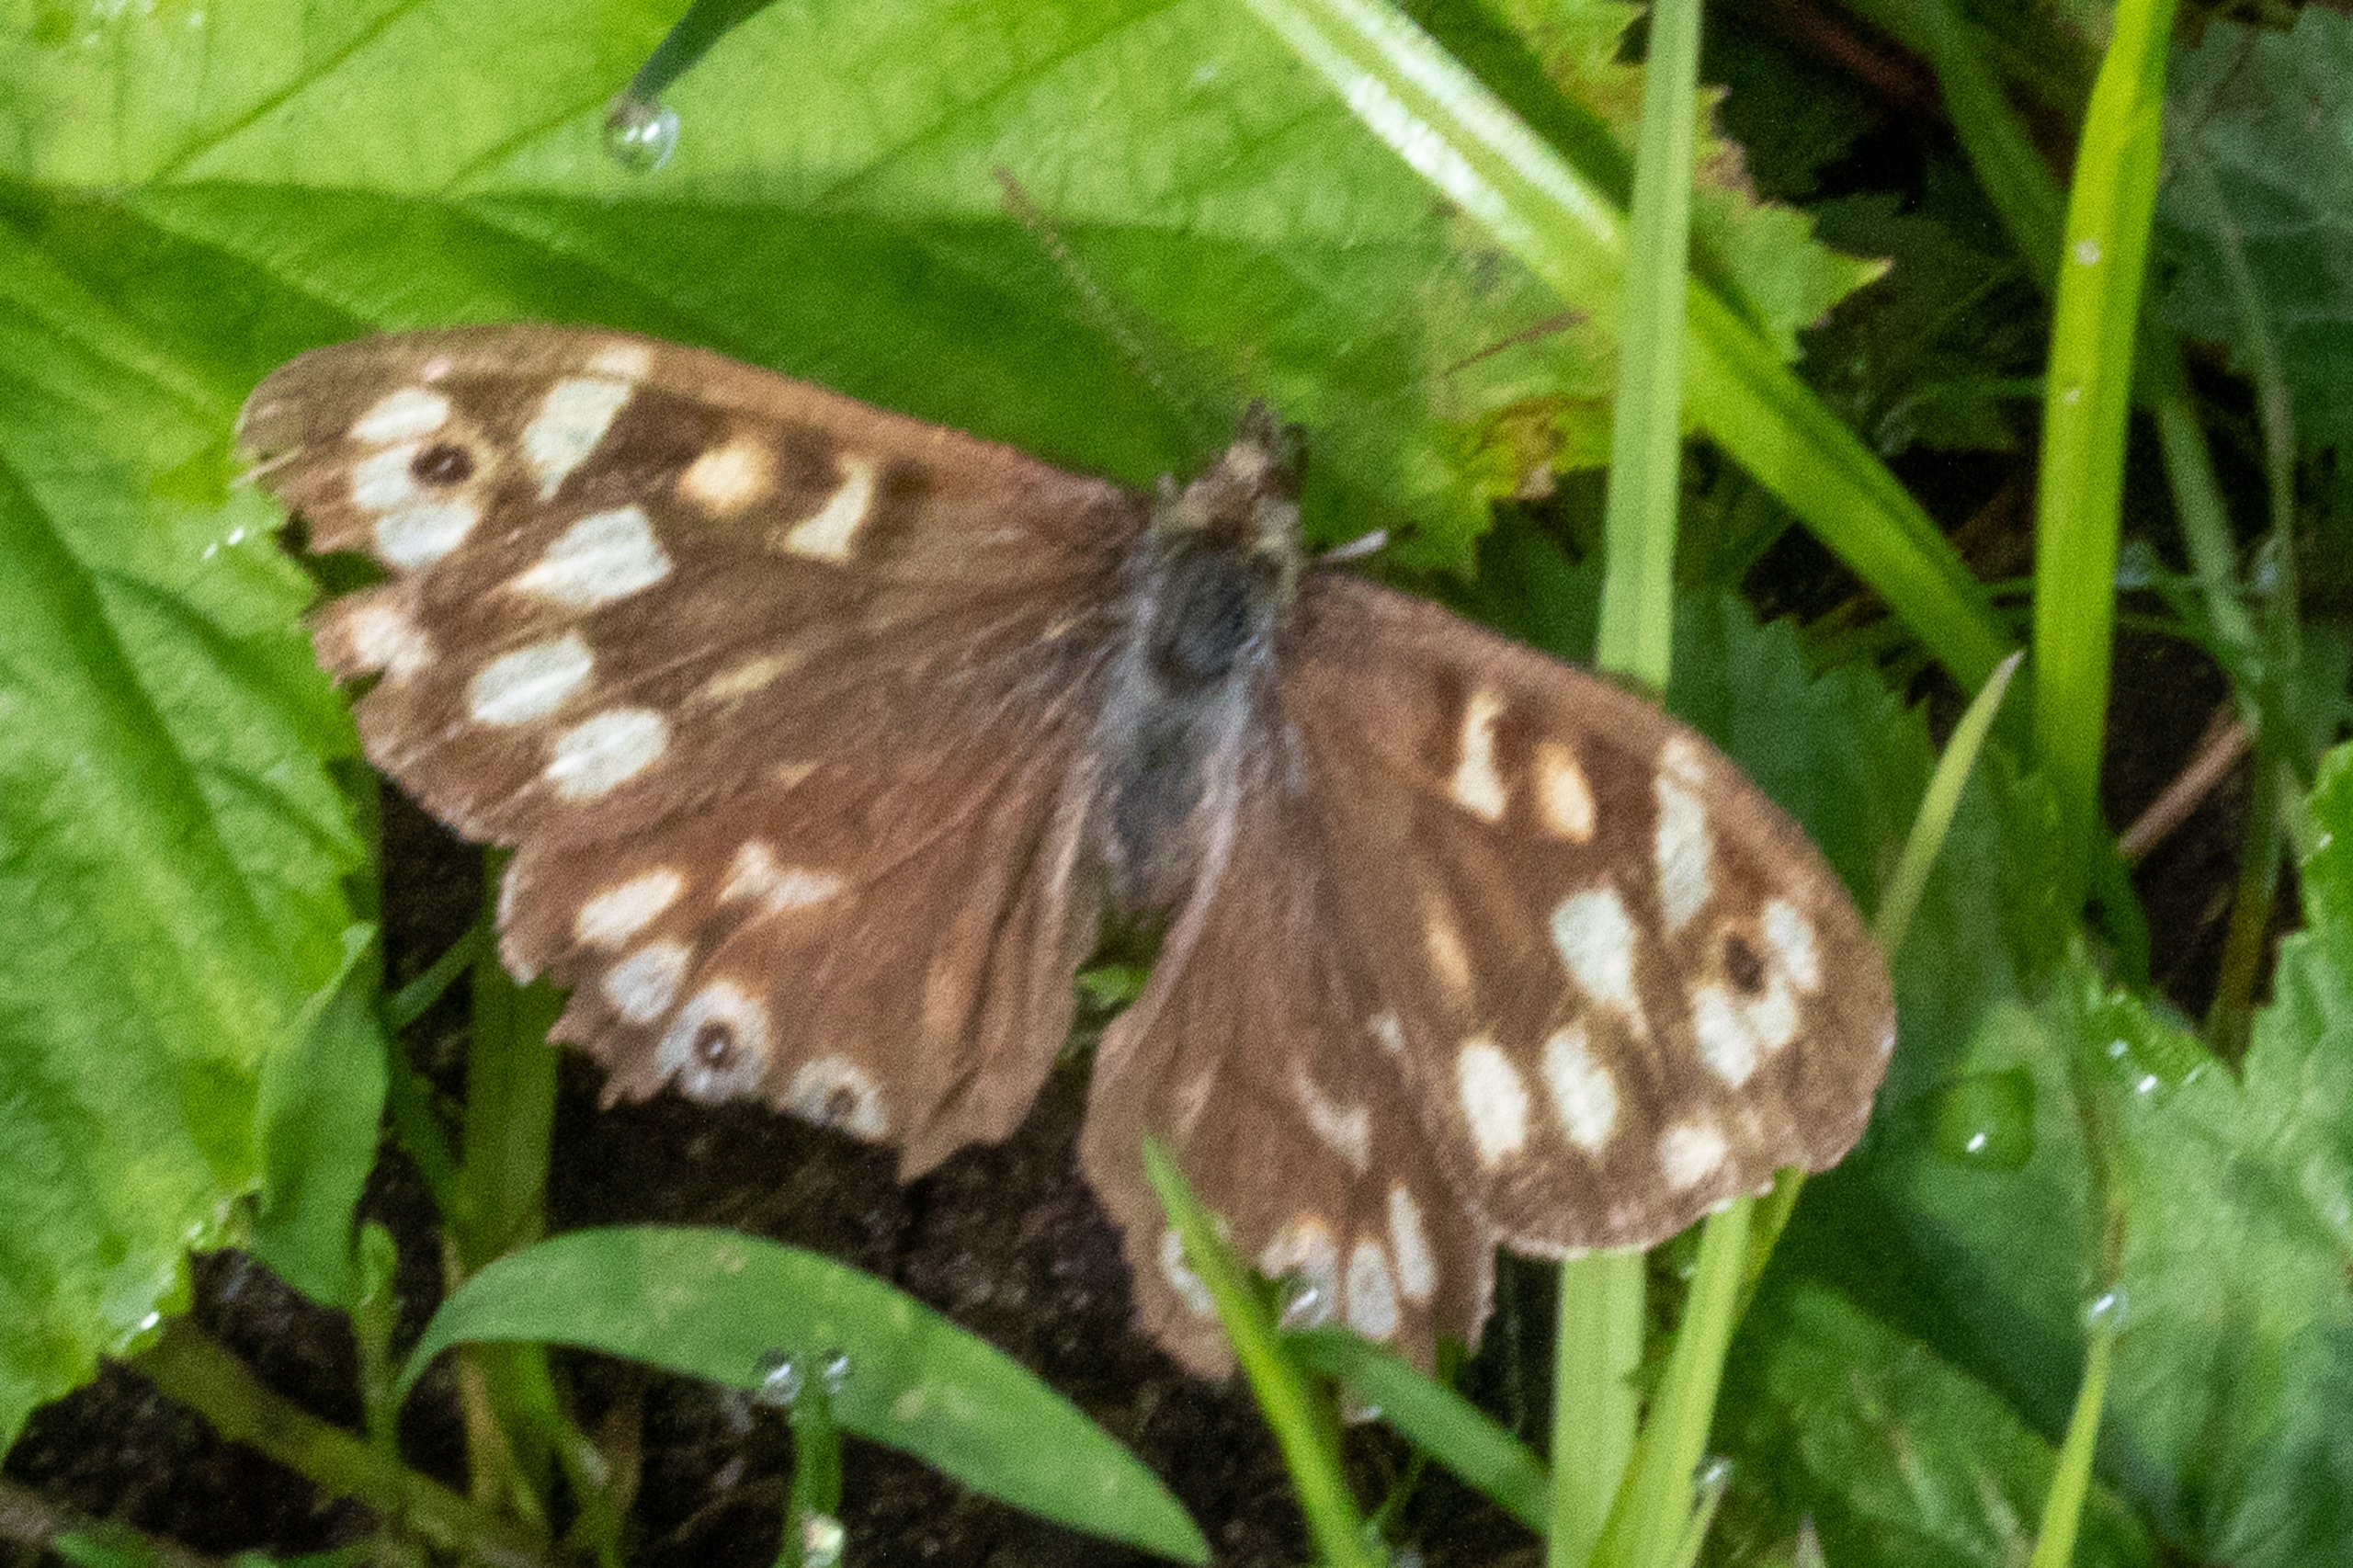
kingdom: Animalia
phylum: Arthropoda
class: Insecta
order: Lepidoptera
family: Nymphalidae
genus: Pararge
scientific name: Pararge aegeria
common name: Skovrandøje
